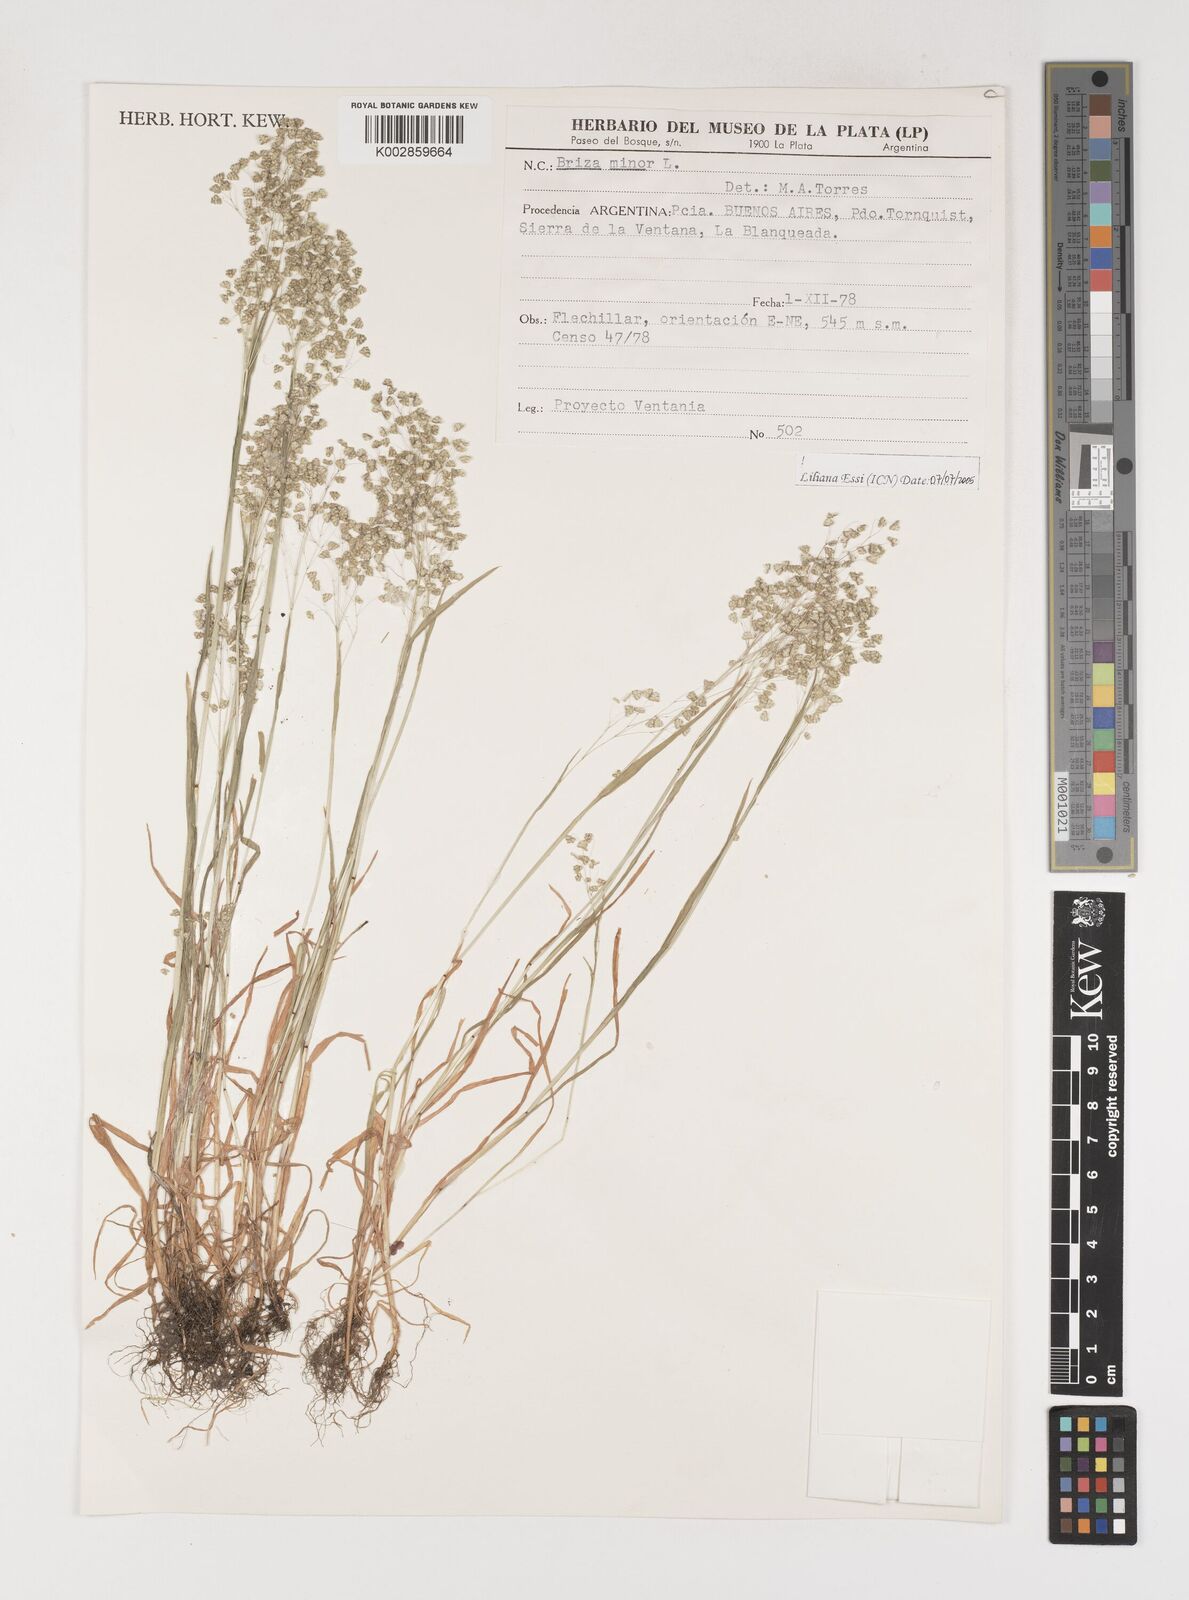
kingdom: Plantae
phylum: Tracheophyta
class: Liliopsida
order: Poales
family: Poaceae
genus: Briza
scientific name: Briza minor
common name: Lesser quaking-grass
